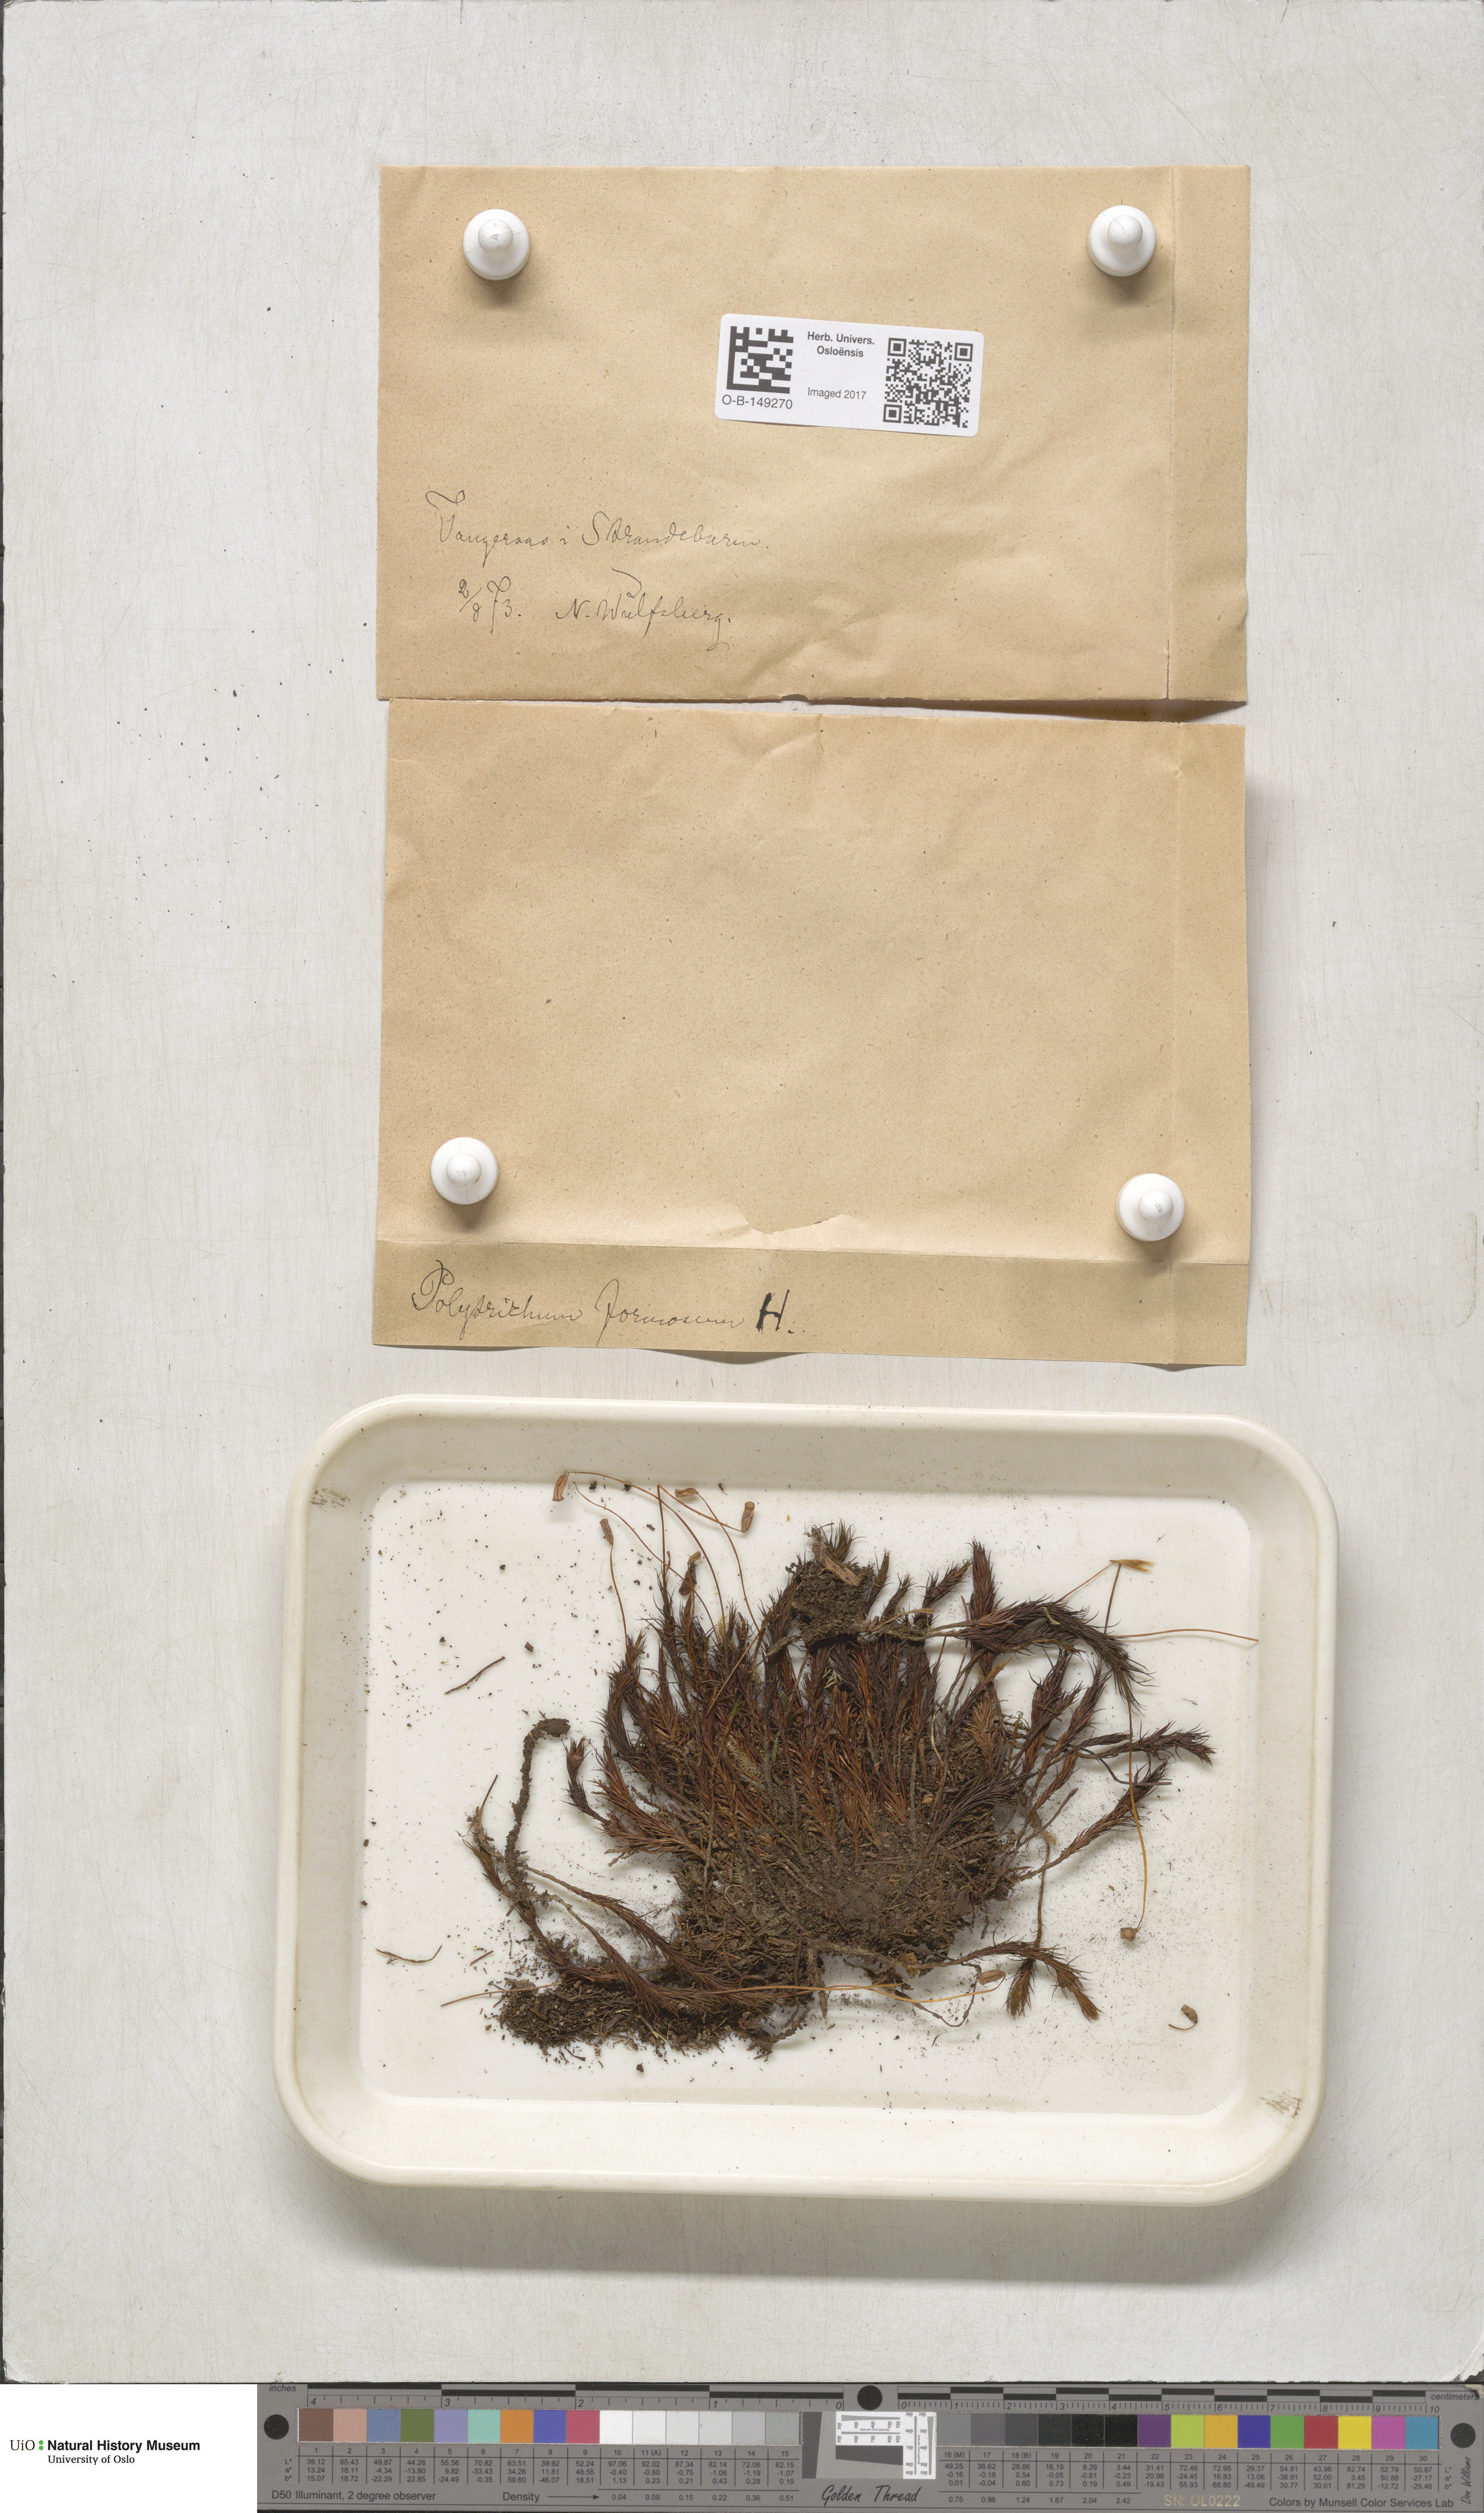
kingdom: Plantae
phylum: Bryophyta
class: Polytrichopsida
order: Polytrichales
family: Polytrichaceae
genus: Polytrichum
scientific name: Polytrichum formosum
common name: Bank haircap moss
